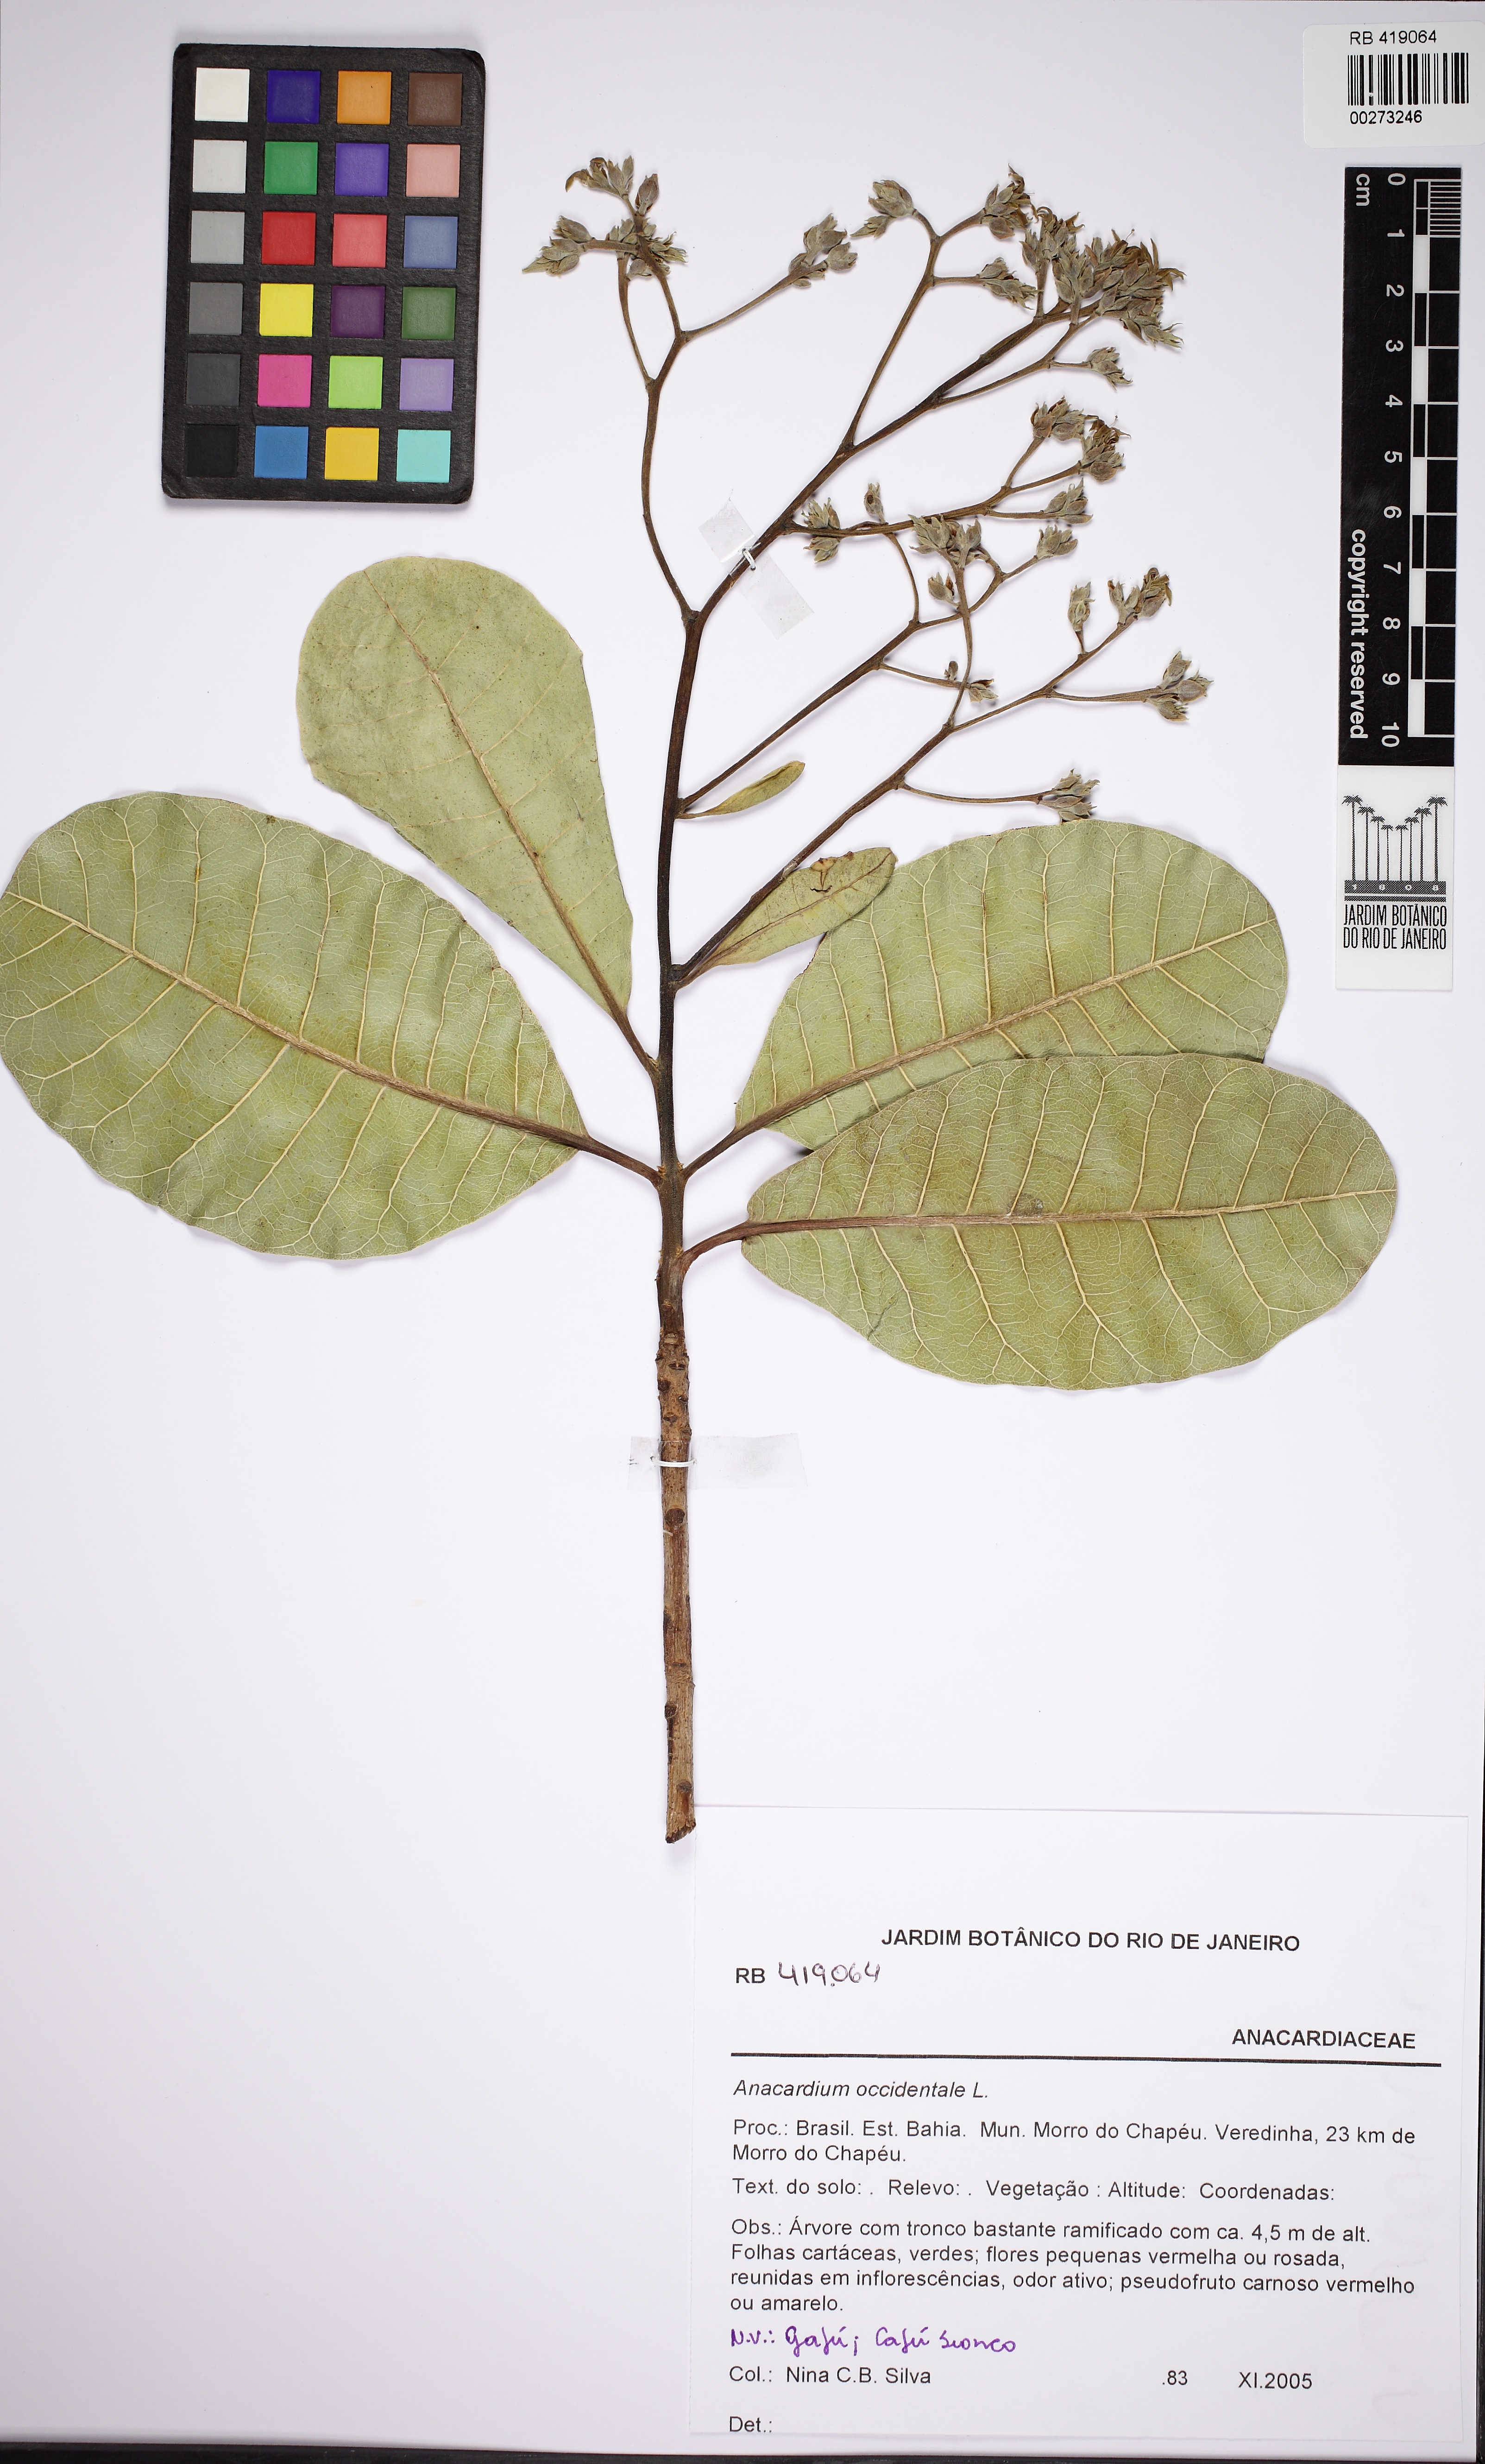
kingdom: Plantae
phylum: Tracheophyta
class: Magnoliopsida
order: Sapindales
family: Anacardiaceae
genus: Anacardium
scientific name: Anacardium occidentale
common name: Cashew
